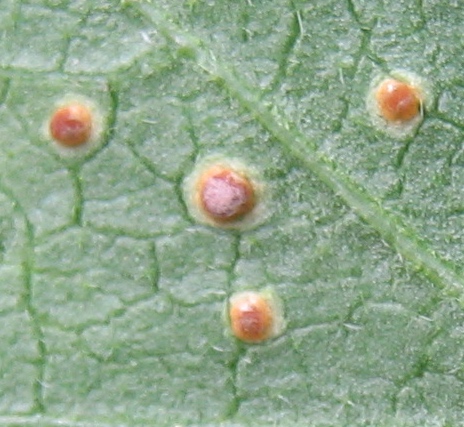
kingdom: Fungi
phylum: Basidiomycota
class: Pucciniomycetes
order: Pucciniales
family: Pucciniaceae
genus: Puccinia
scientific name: Puccinia malvacearum
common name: stokrose-tvecellerust
